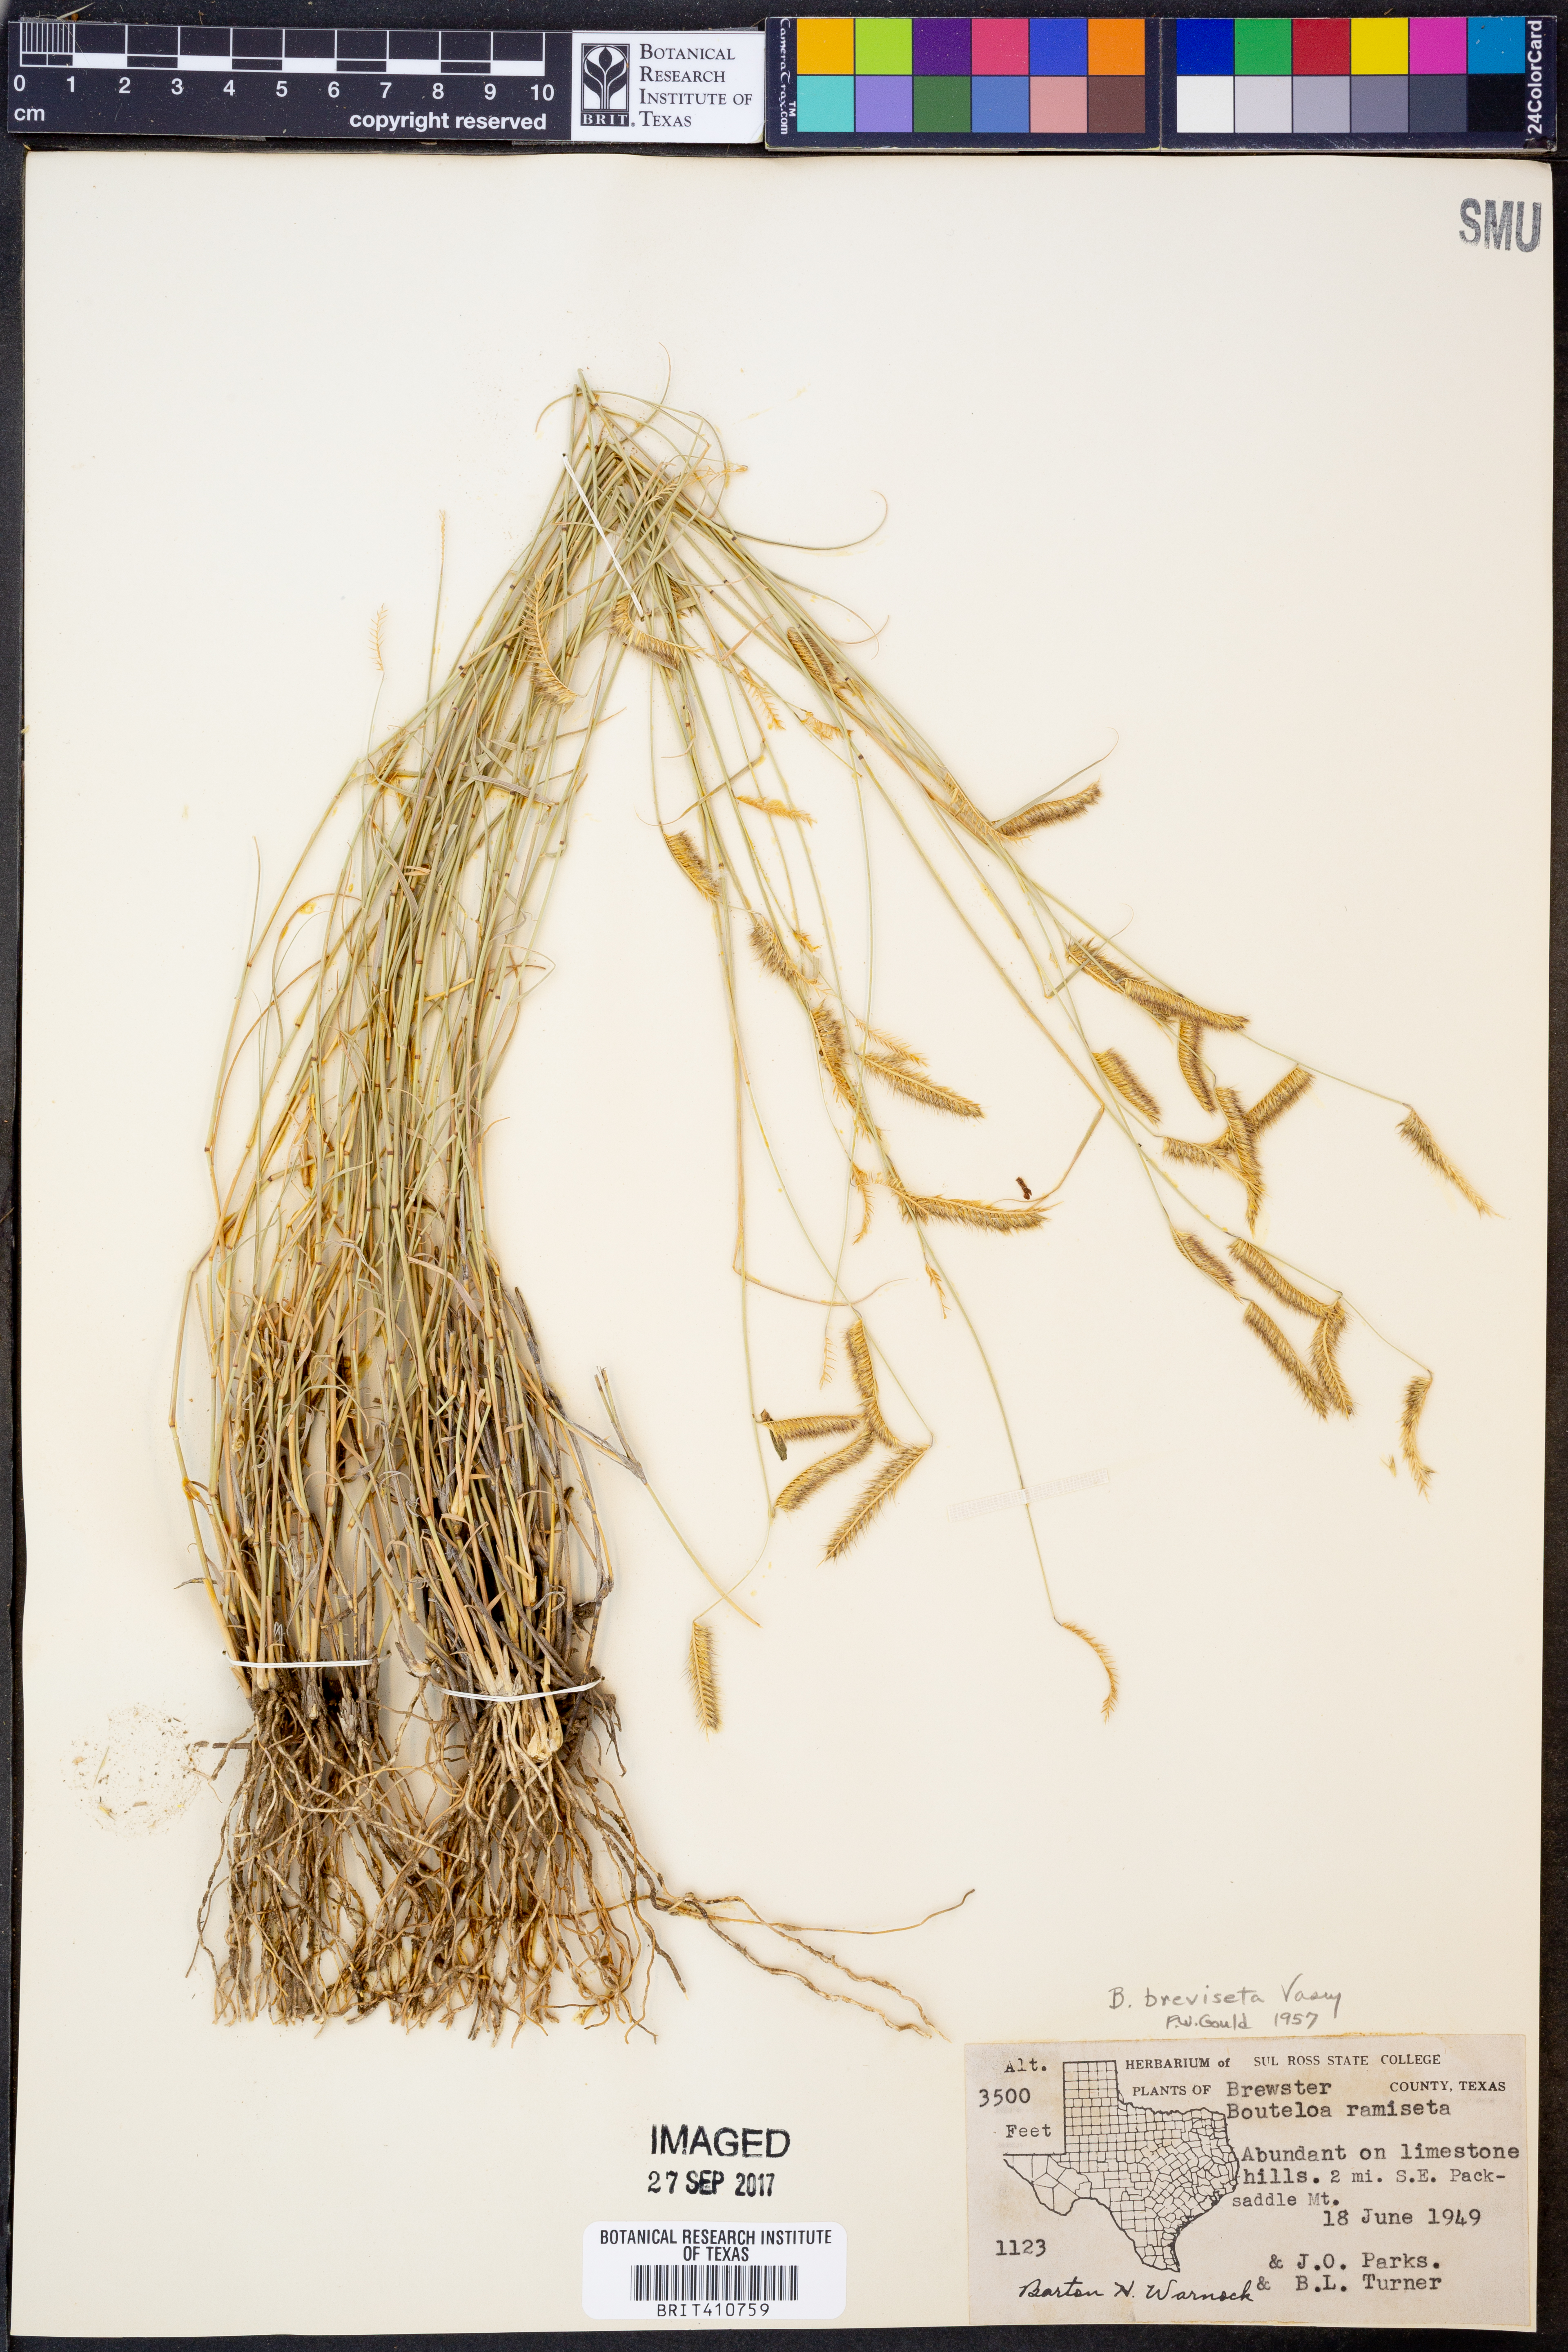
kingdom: Plantae
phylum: Tracheophyta
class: Liliopsida
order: Poales
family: Poaceae
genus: Bouteloua
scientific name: Bouteloua breviseta
